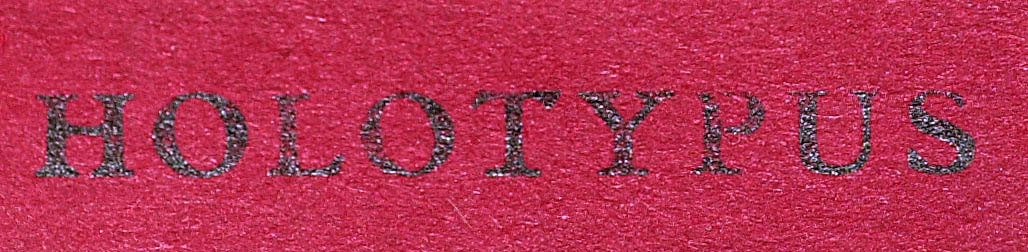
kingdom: Plantae
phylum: Tracheophyta
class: Magnoliopsida
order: Asterales
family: Asteraceae
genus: Lepidaploa
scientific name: Lepidaploa barbata
